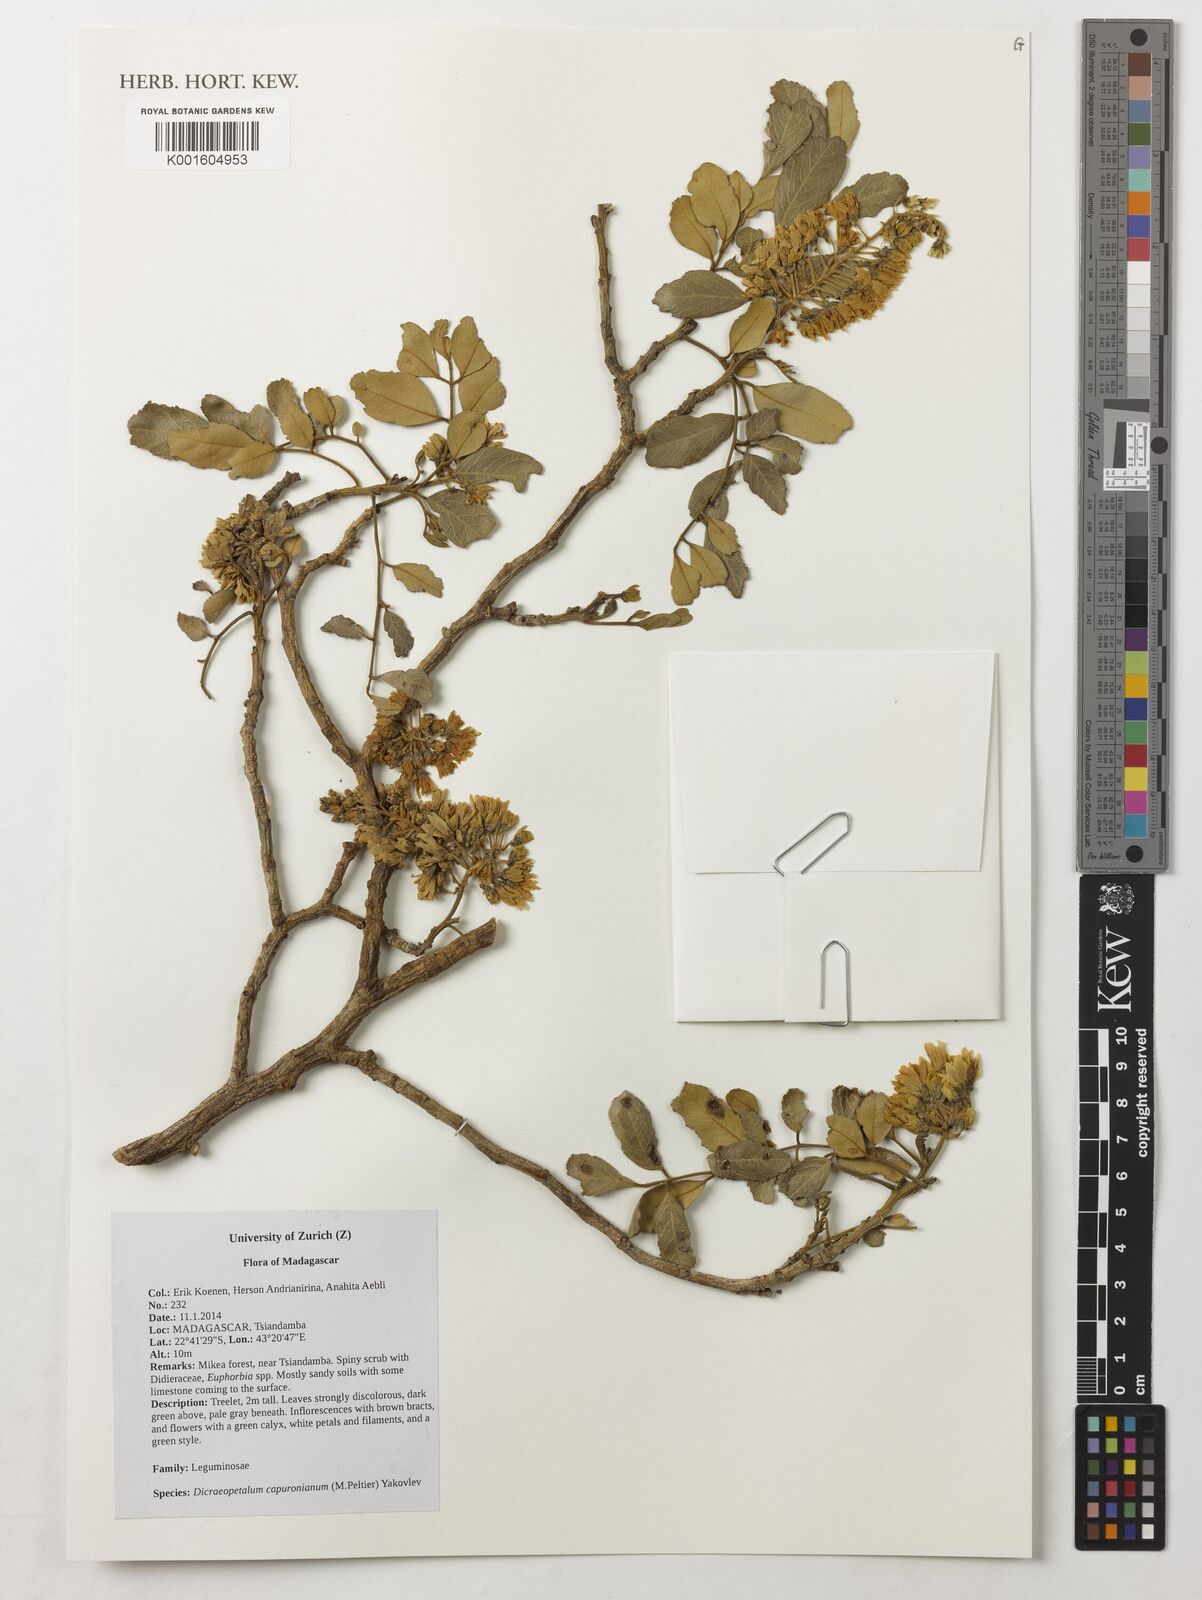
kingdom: Plantae
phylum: Tracheophyta
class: Magnoliopsida
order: Fabales
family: Fabaceae
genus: Dicraeopetalum
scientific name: Dicraeopetalum capuronianum
